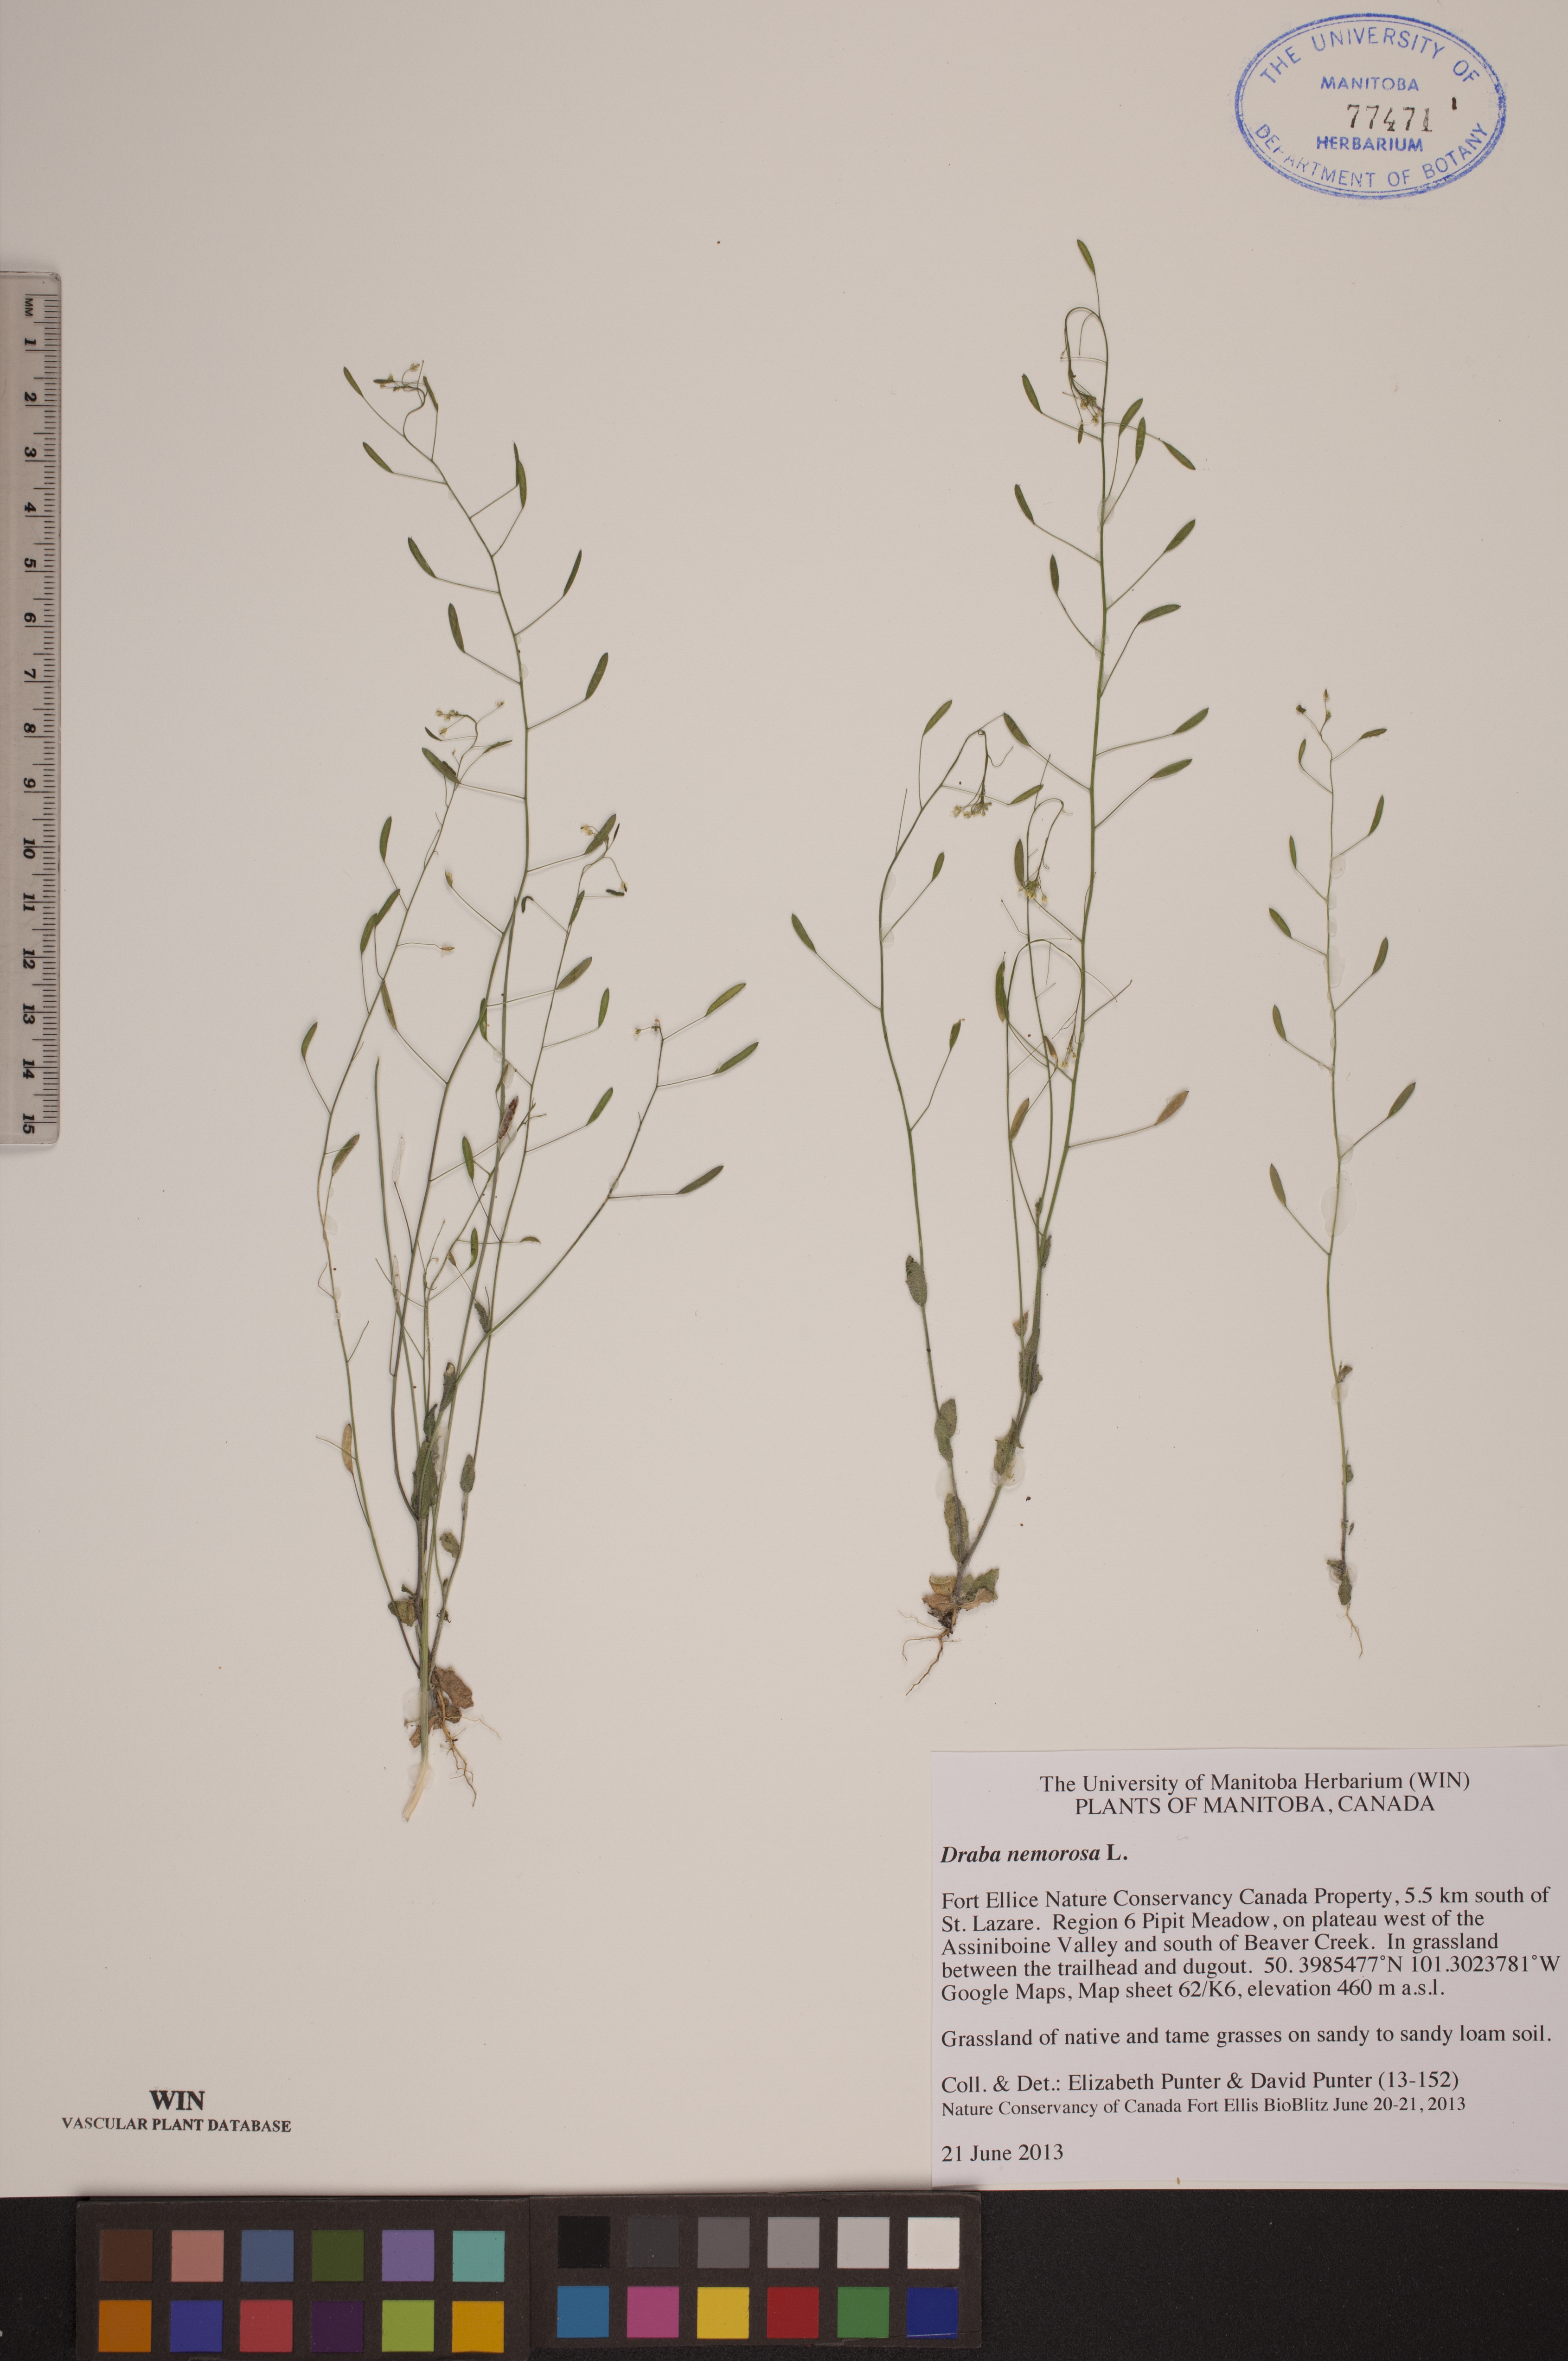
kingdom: Plantae
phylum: Tracheophyta
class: Magnoliopsida
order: Brassicales
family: Brassicaceae
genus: Draba
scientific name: Draba nemorosa
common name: Wood whitlow-grass
